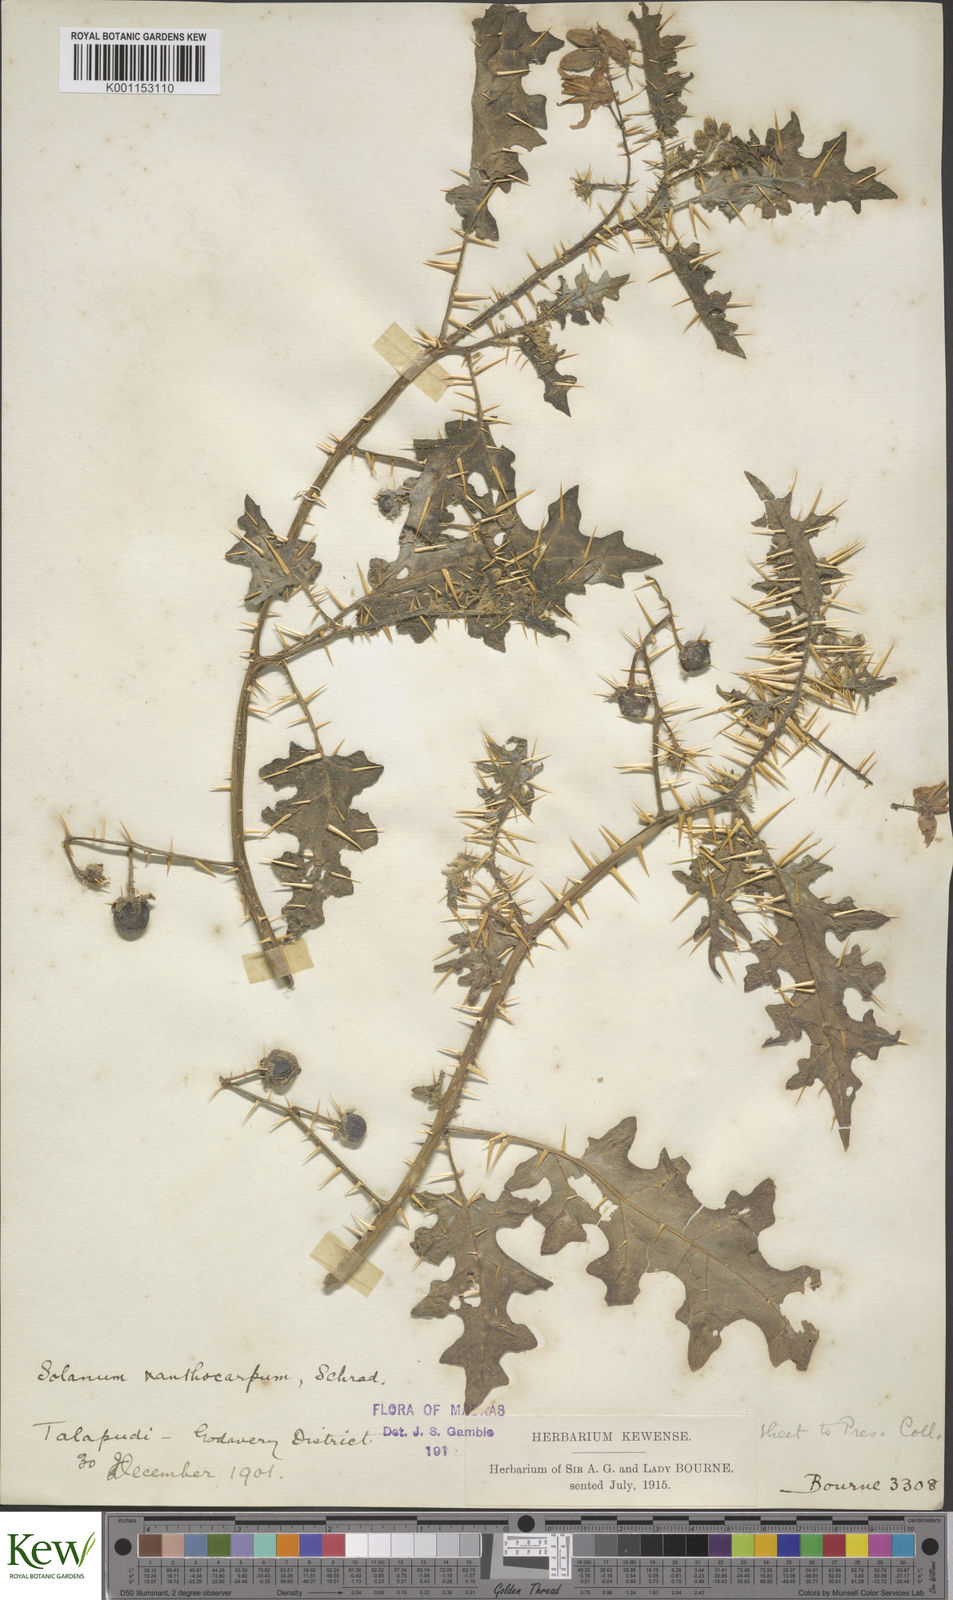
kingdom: Plantae
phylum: Tracheophyta
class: Magnoliopsida
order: Solanales
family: Solanaceae
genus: Solanum
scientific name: Solanum virginianum
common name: Surattense nightshade
